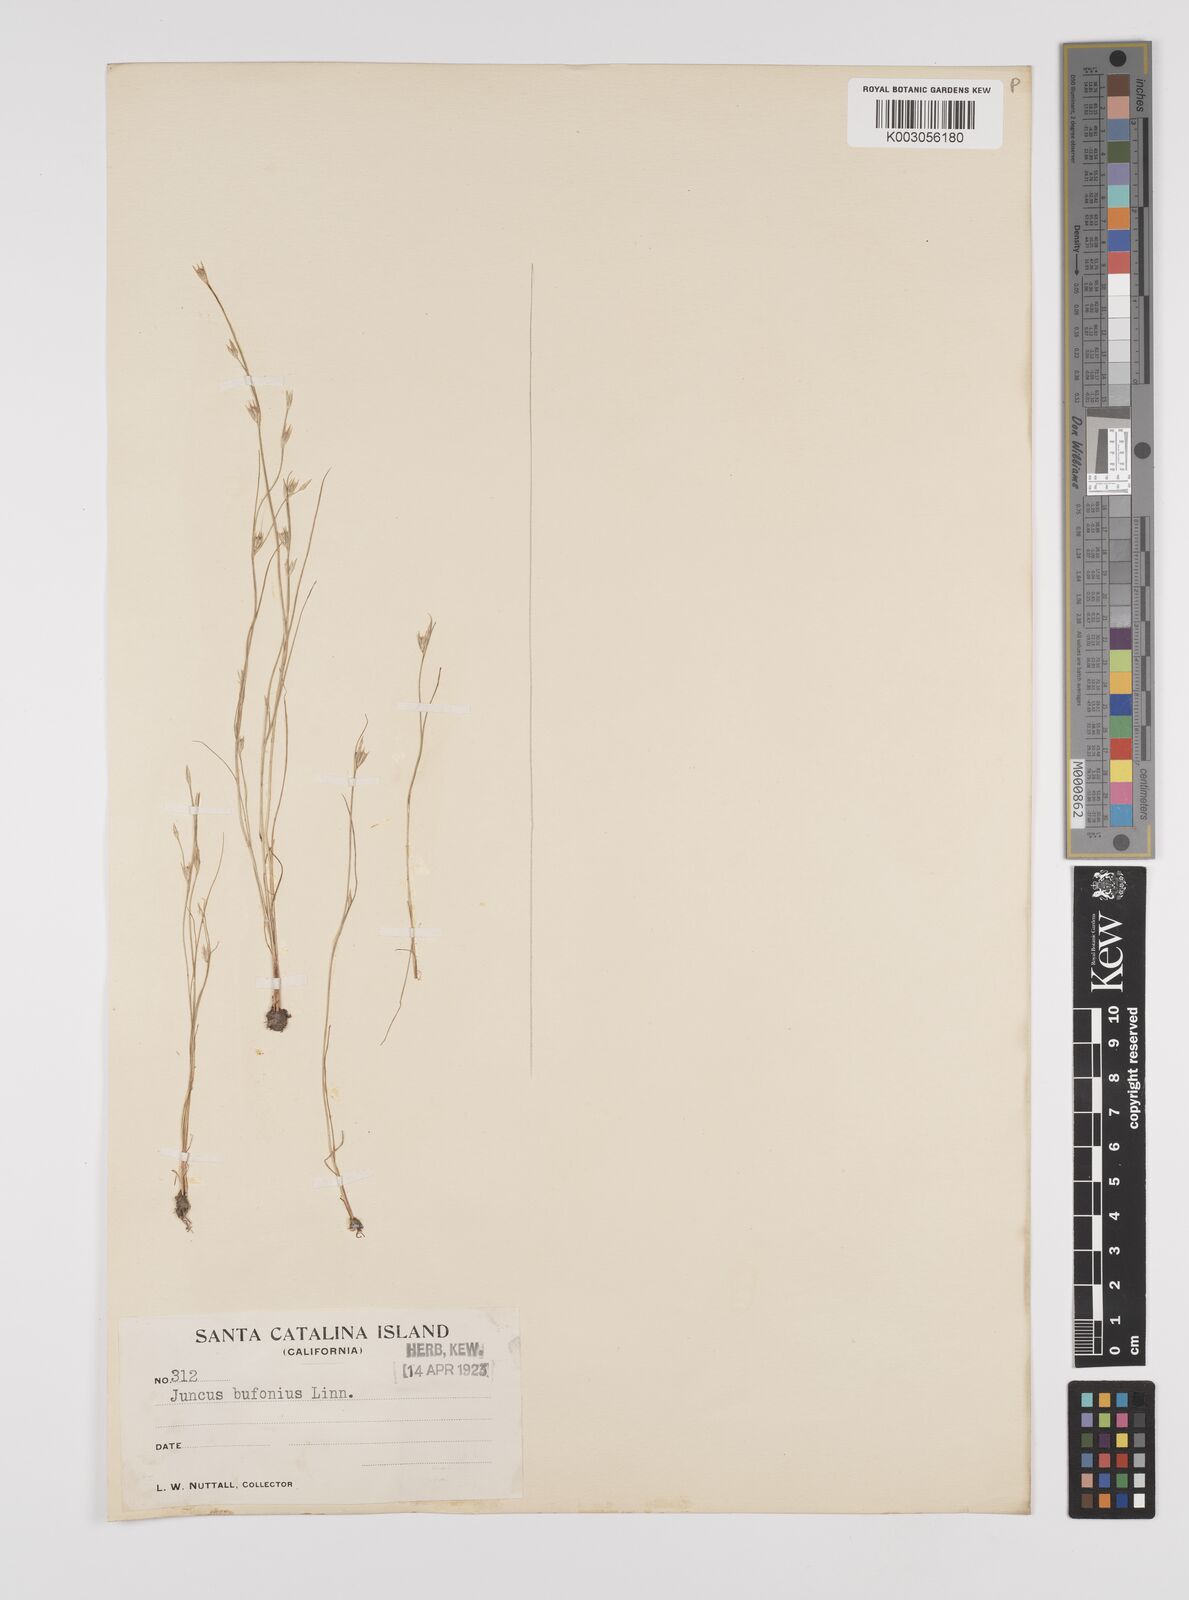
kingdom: Plantae
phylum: Tracheophyta
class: Liliopsida
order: Poales
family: Juncaceae
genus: Juncus
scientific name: Juncus bufonius
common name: Toad rush
